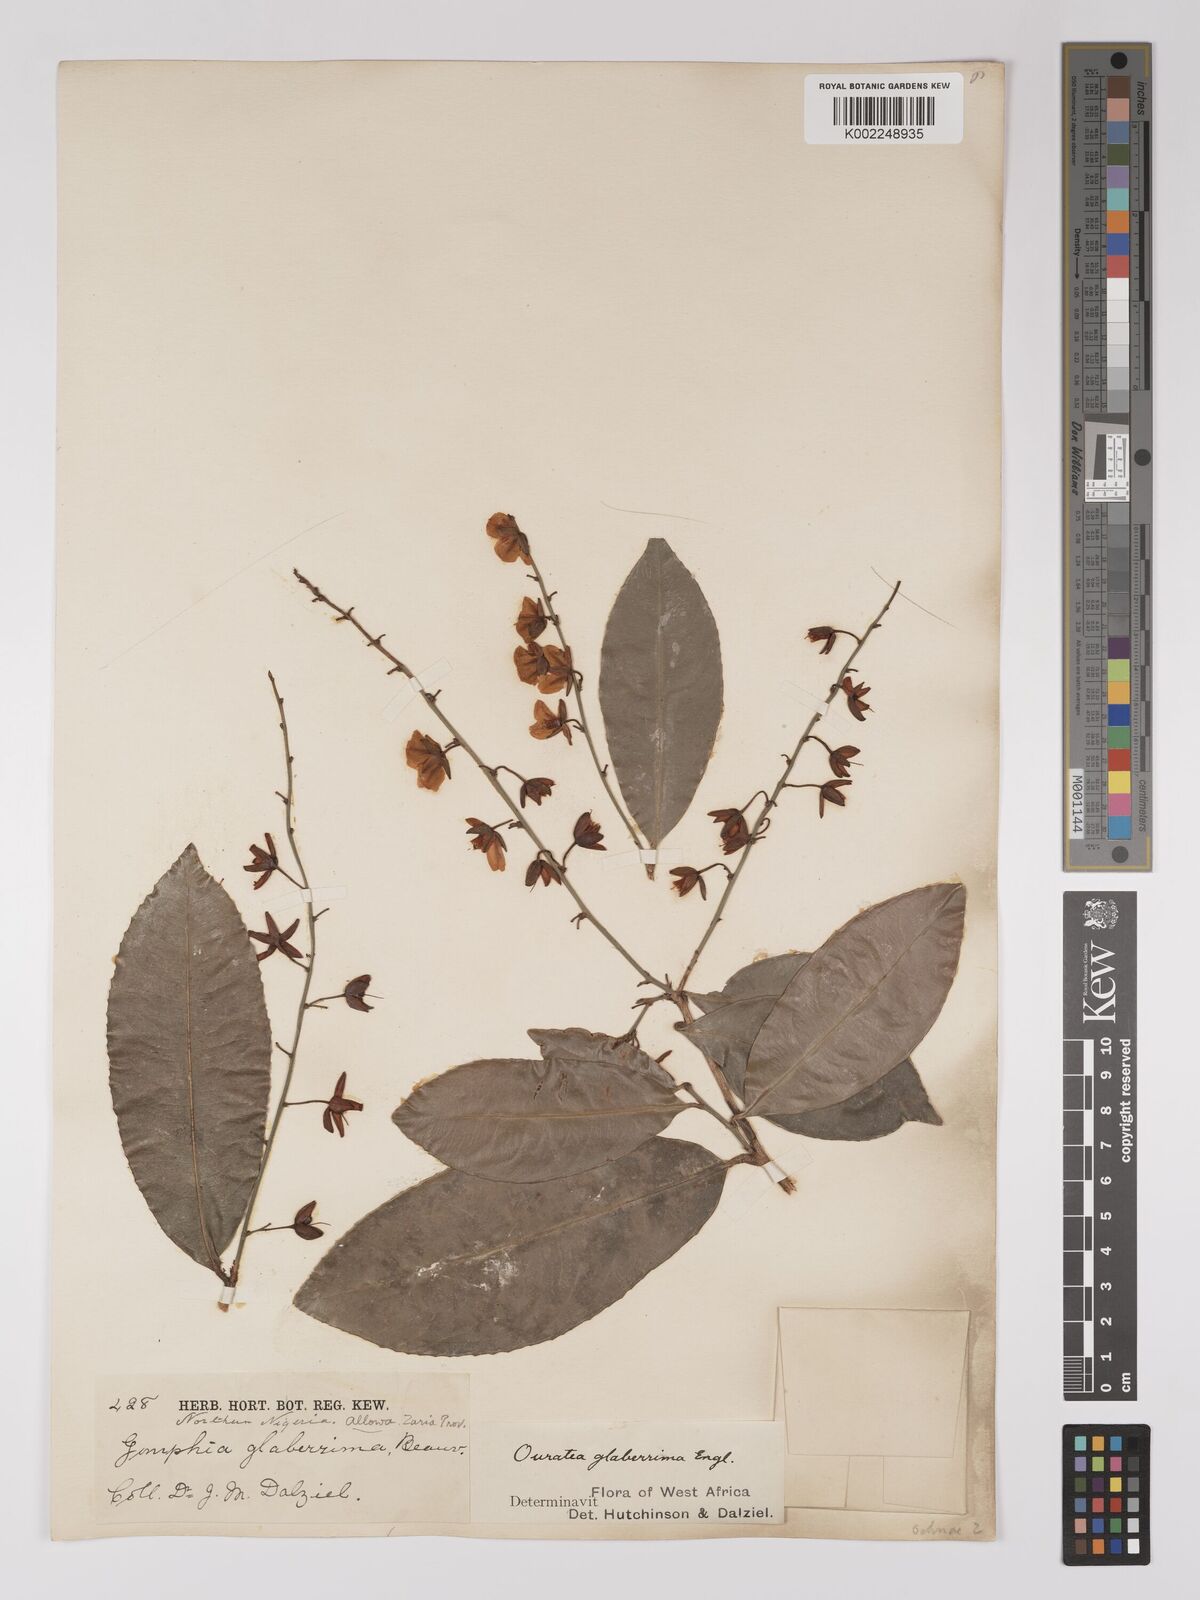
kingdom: Plantae
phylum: Tracheophyta
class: Magnoliopsida
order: Malpighiales
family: Ochnaceae
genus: Campylospermum
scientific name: Campylospermum glaberrimum
